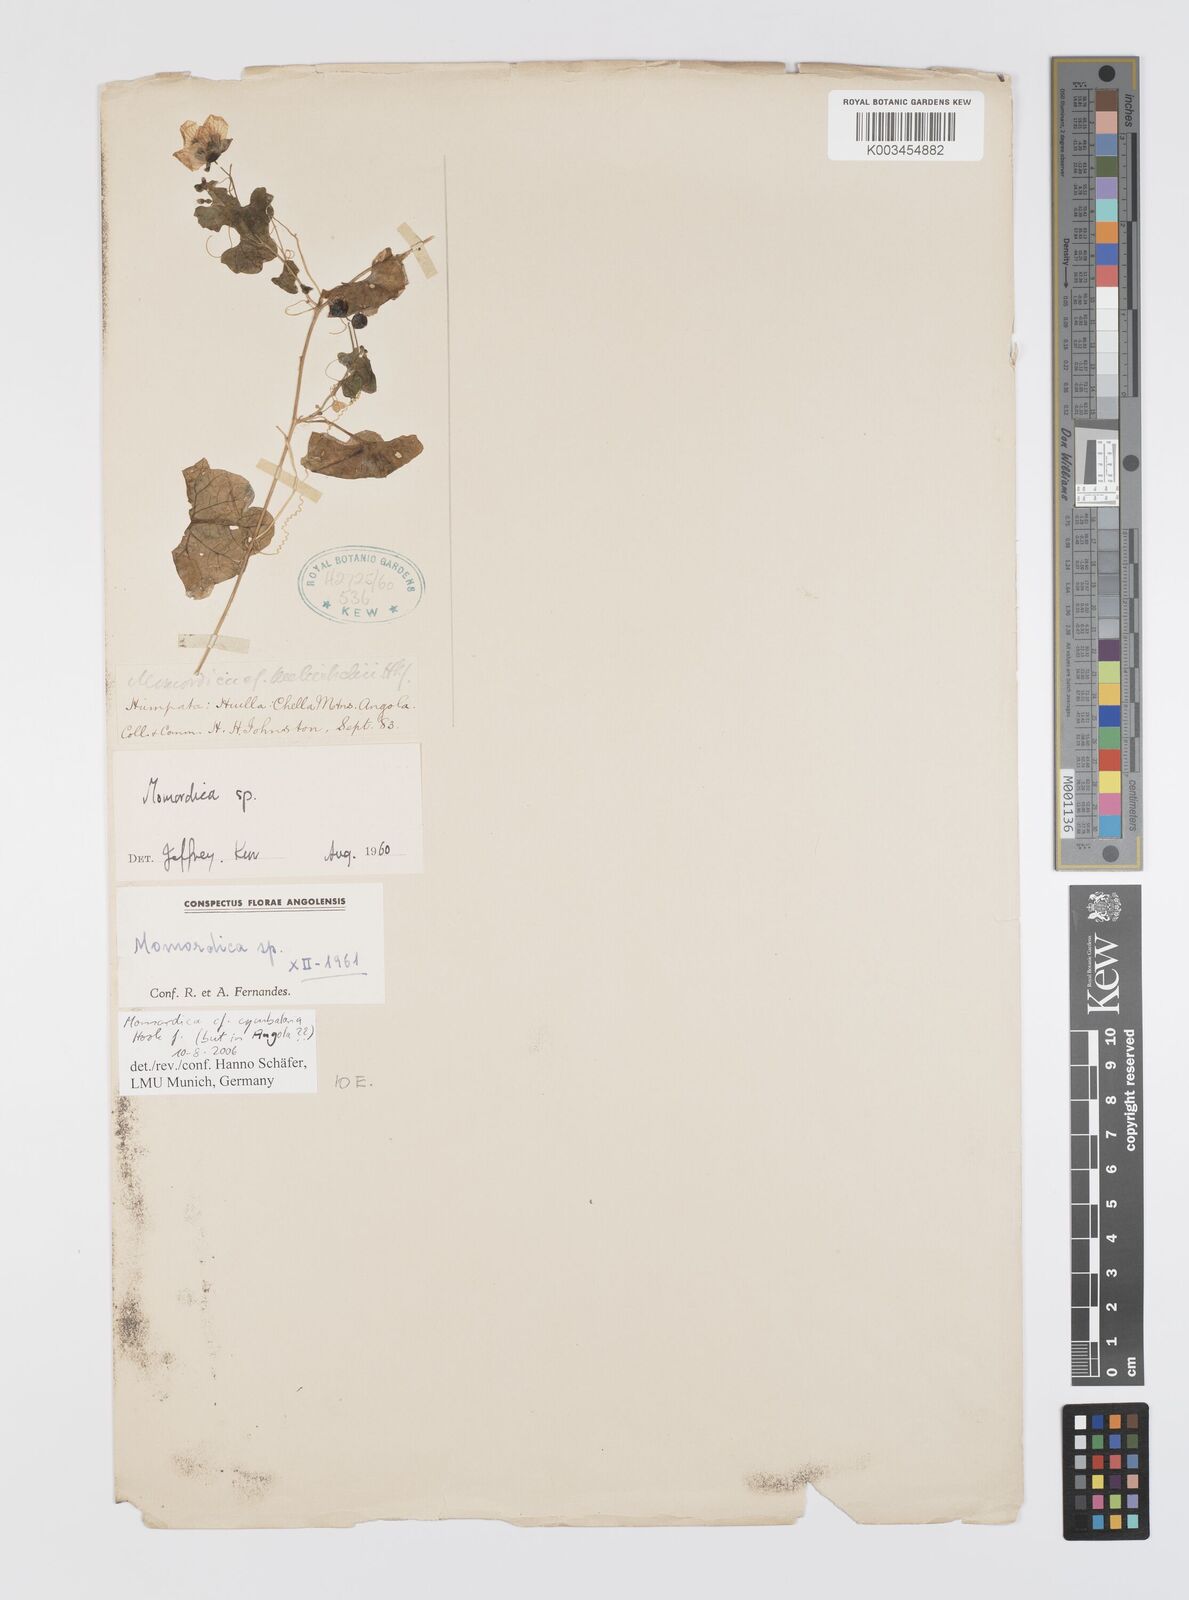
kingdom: Plantae
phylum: Tracheophyta
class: Magnoliopsida
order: Cucurbitales
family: Cucurbitaceae
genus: Momordica
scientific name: Momordica cymbalaria
